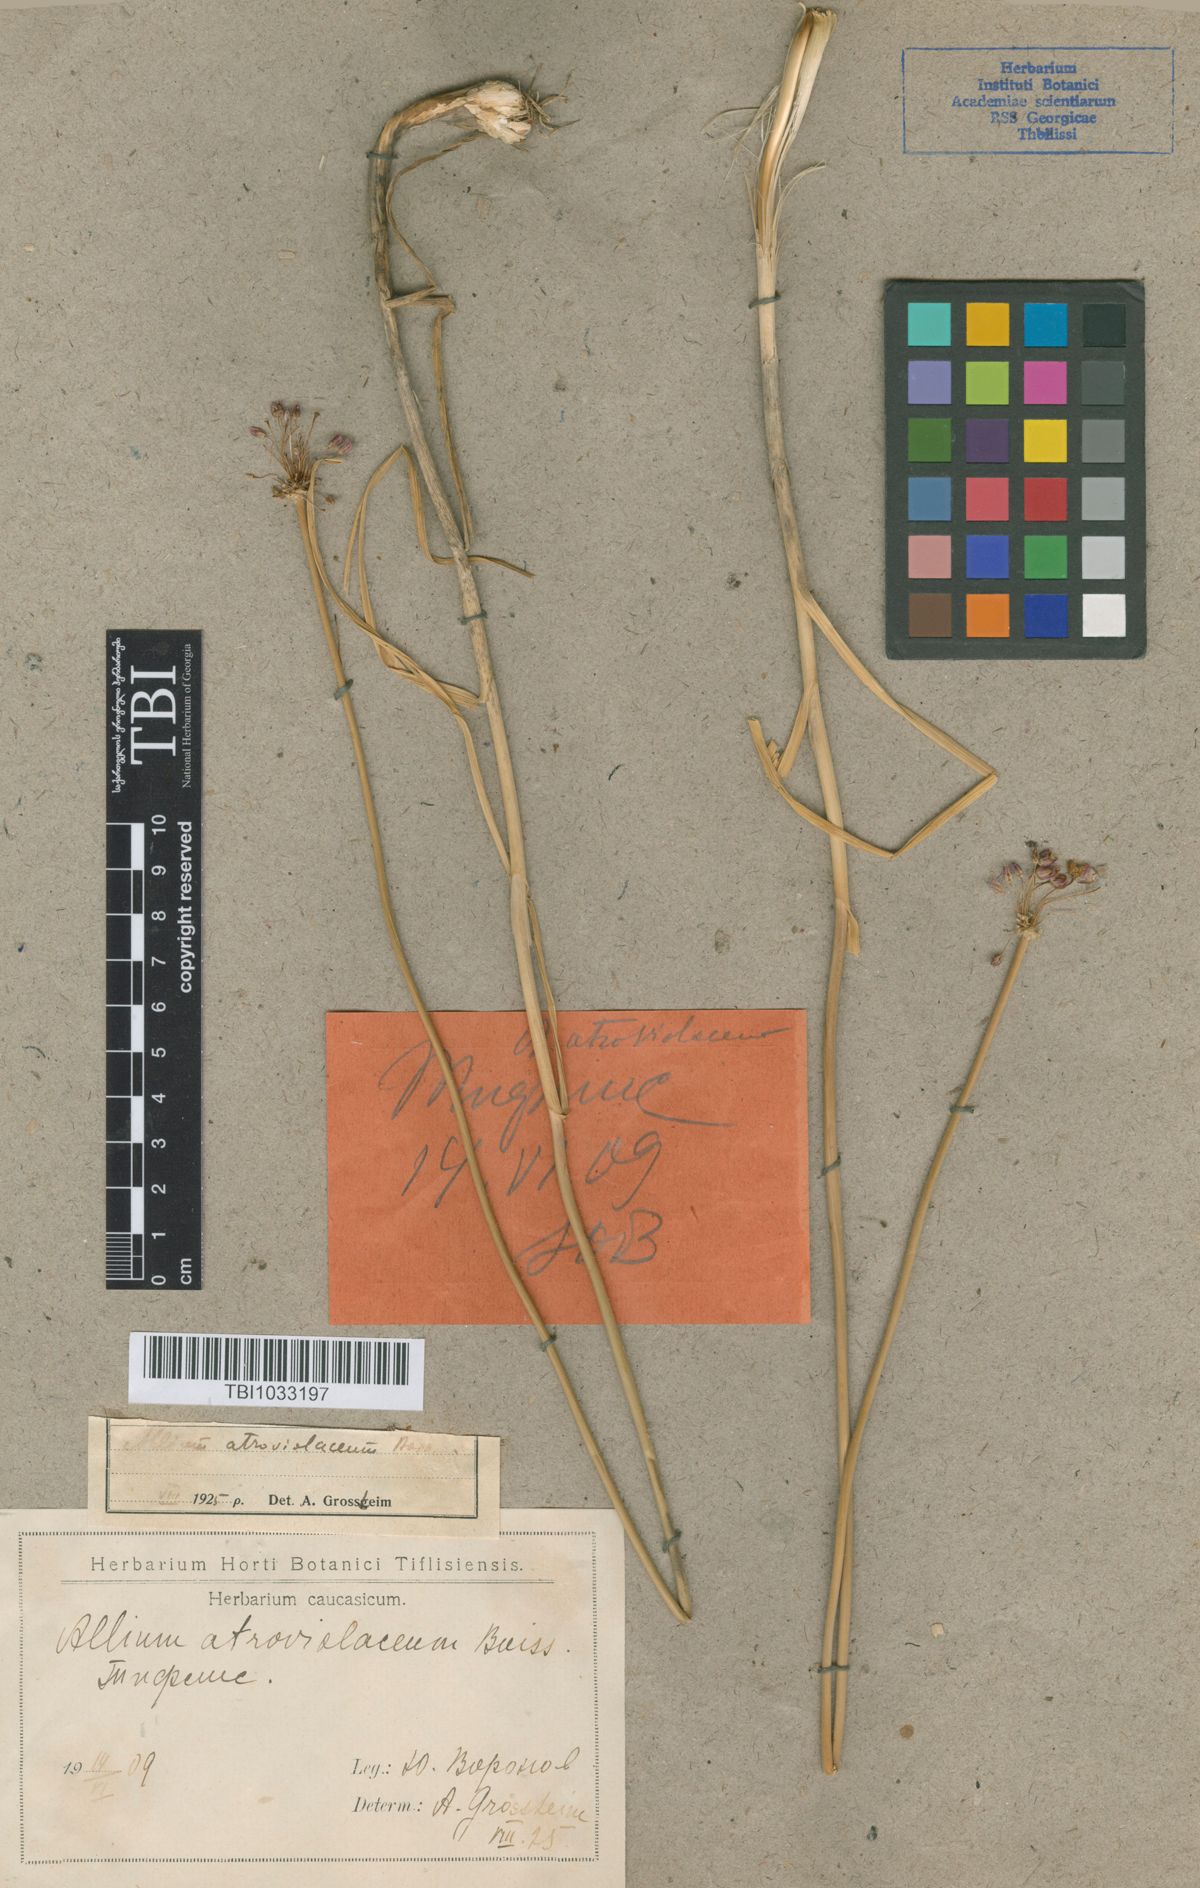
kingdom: Plantae
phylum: Tracheophyta
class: Liliopsida
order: Asparagales
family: Amaryllidaceae
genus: Allium
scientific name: Allium atroviolaceum
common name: Broadleaf wild leek
